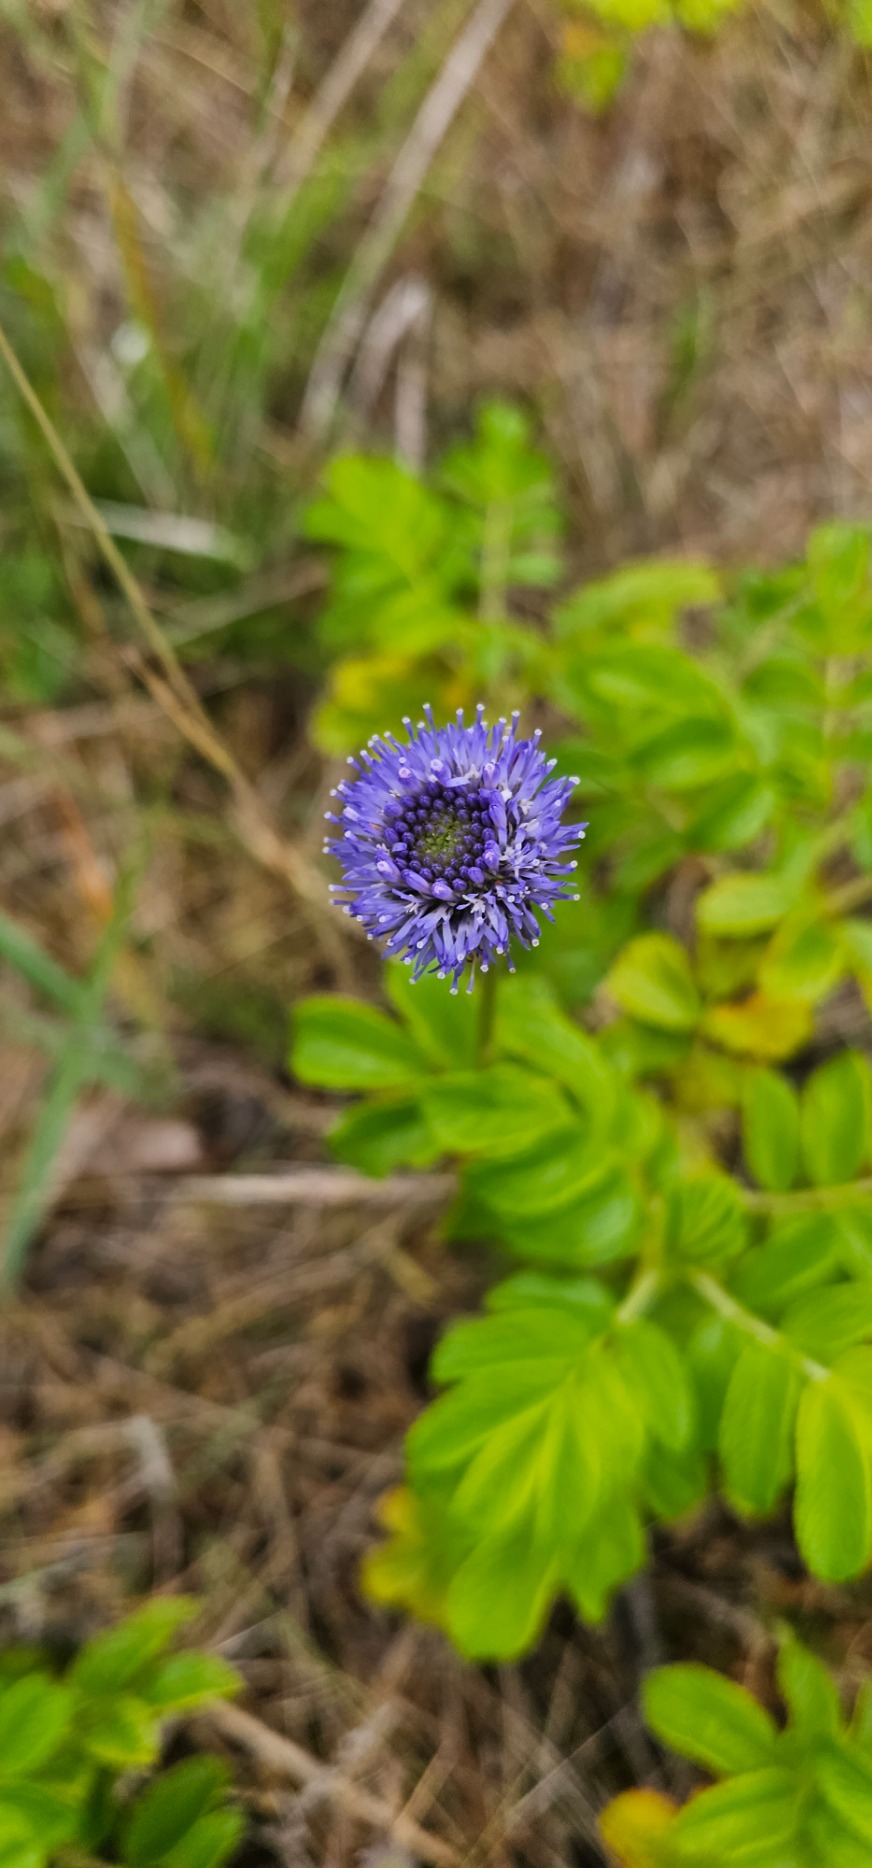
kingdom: Plantae
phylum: Tracheophyta
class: Magnoliopsida
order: Asterales
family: Campanulaceae
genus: Jasione
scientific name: Jasione montana
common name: Blåmunke
